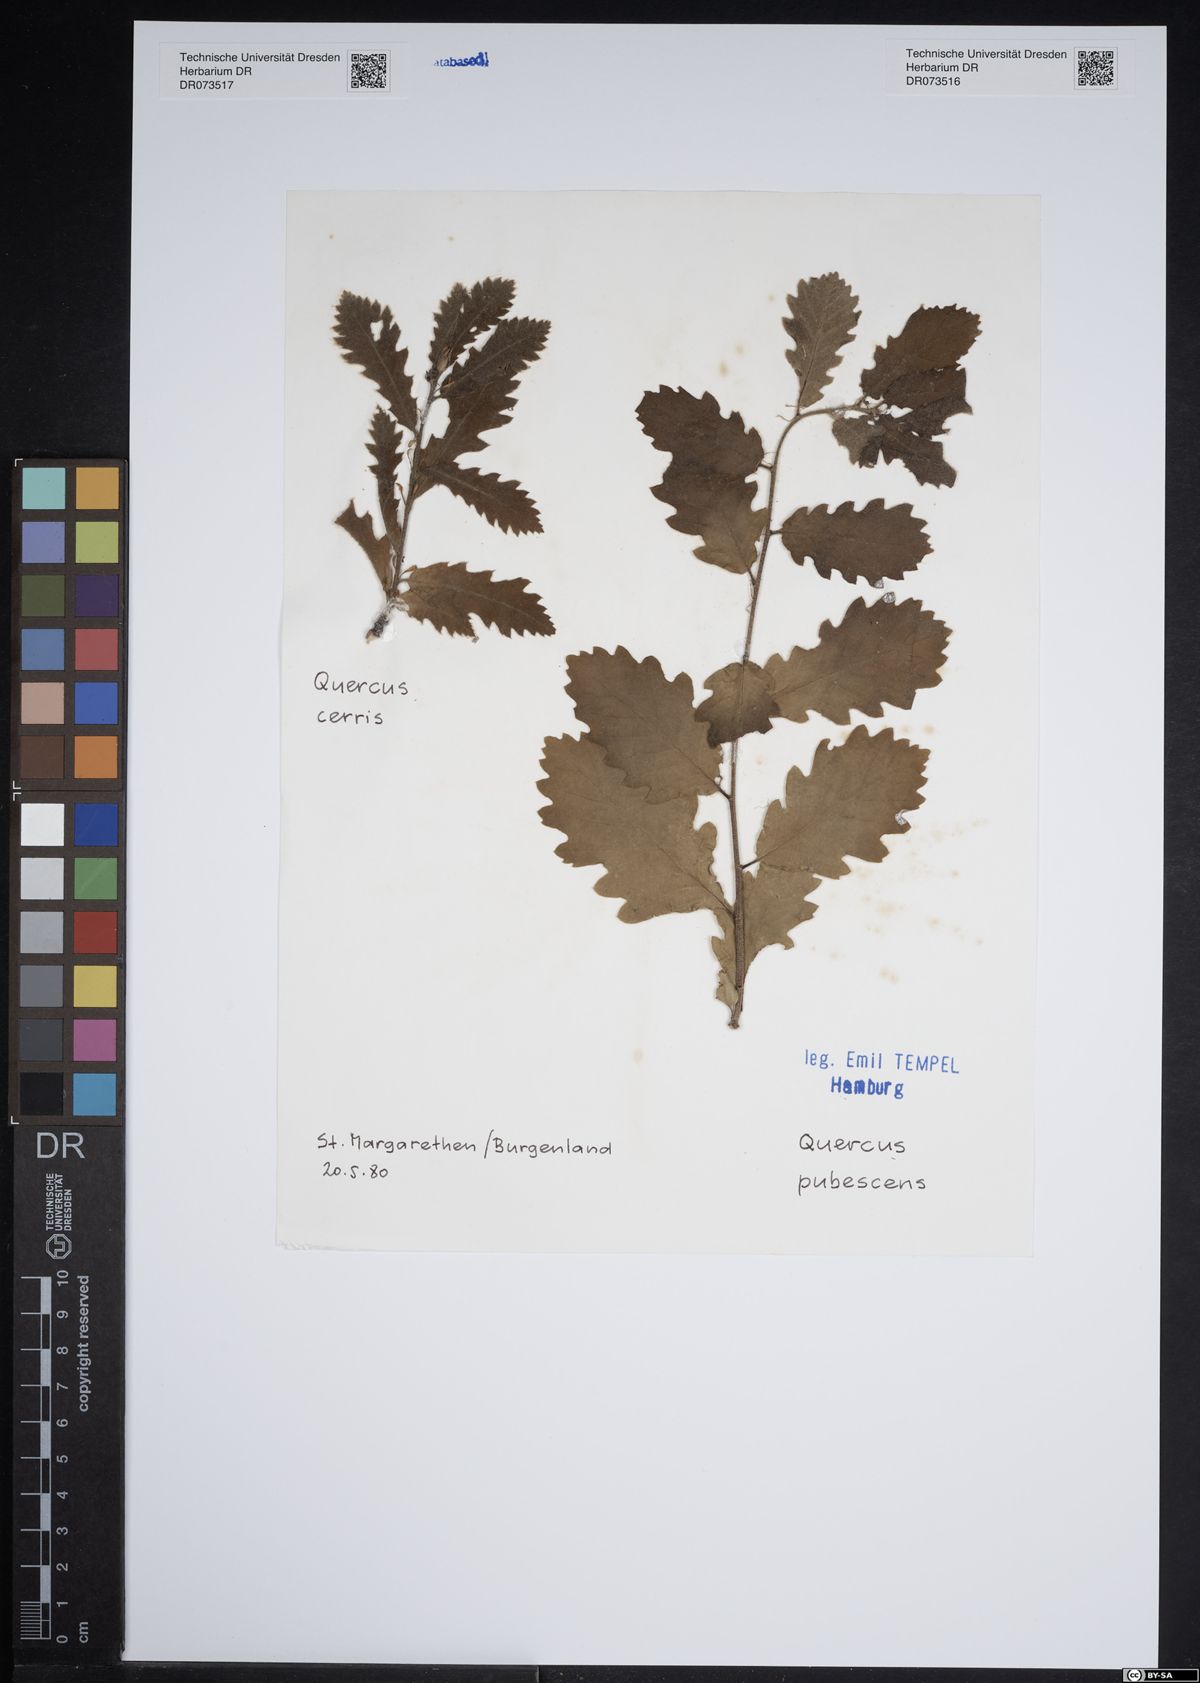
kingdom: Plantae
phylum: Tracheophyta
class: Magnoliopsida
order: Fagales
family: Fagaceae
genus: Quercus
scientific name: Quercus pubescens
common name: Downy oak
